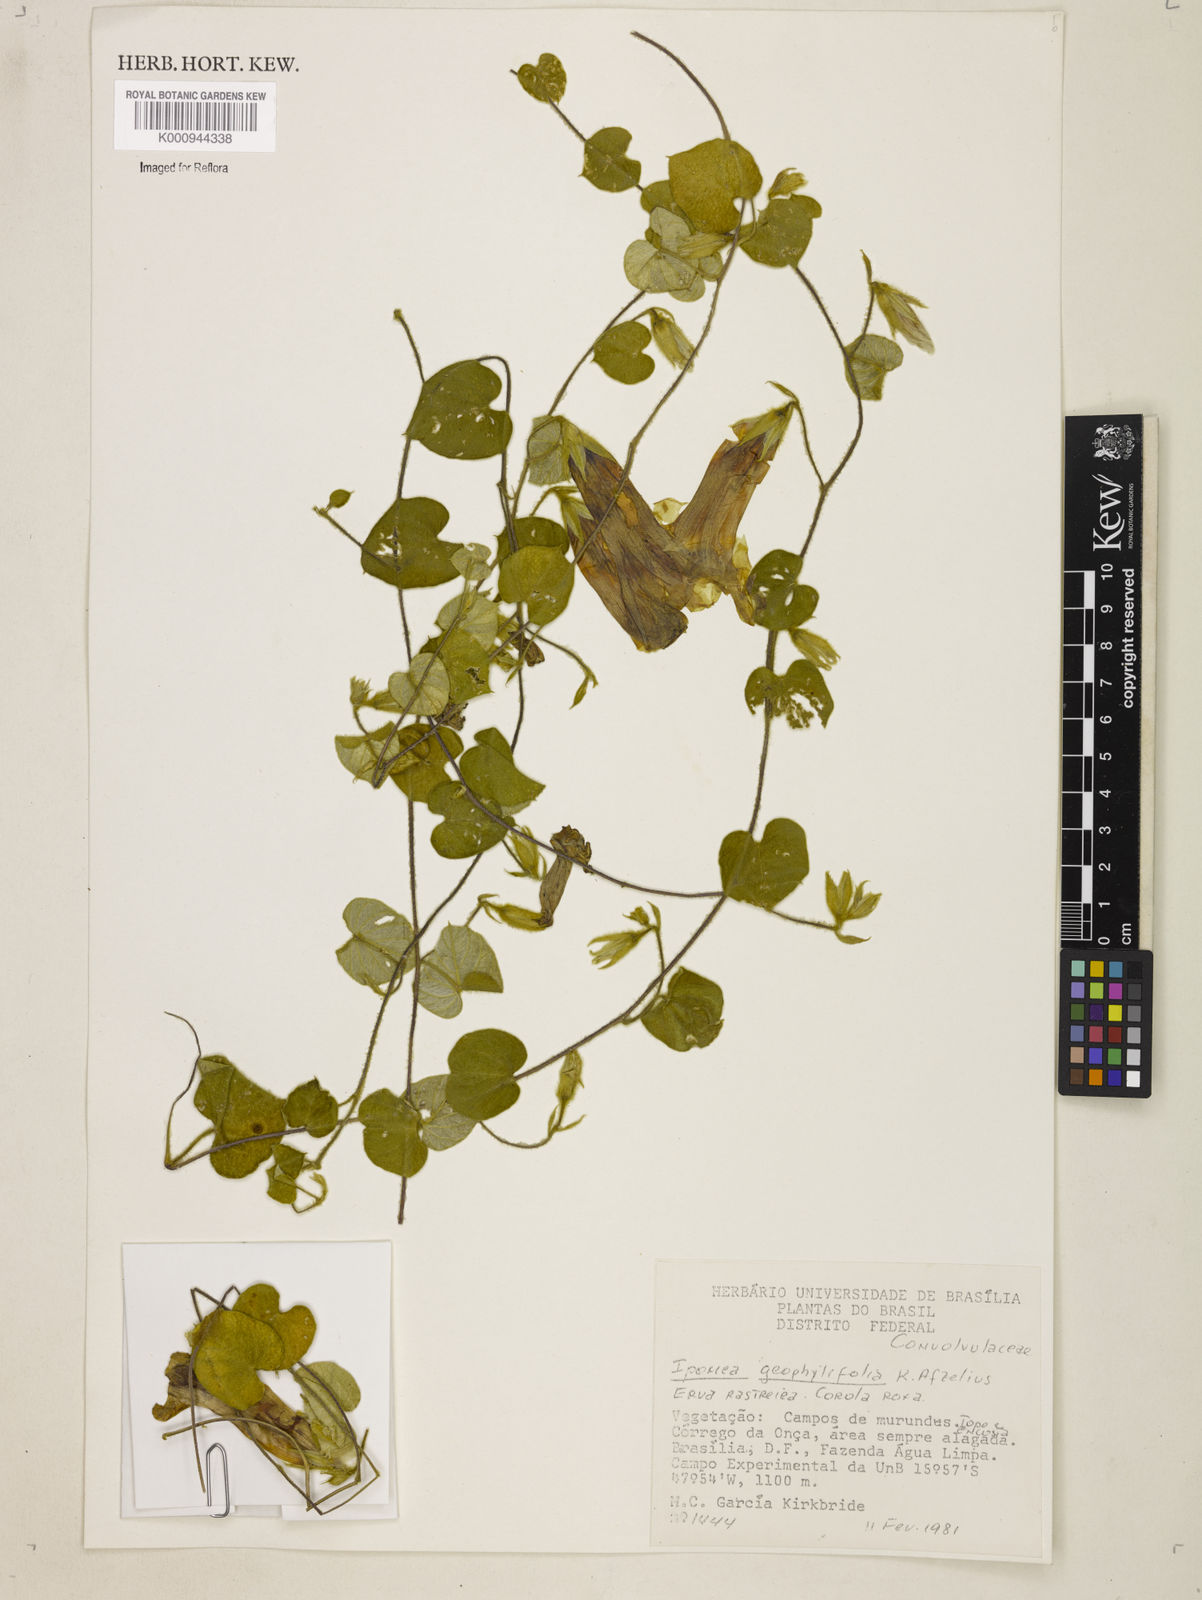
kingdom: Plantae
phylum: Tracheophyta
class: Magnoliopsida
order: Solanales
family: Convolvulaceae
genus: Ipomoea
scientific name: Ipomoea geophilifolia
